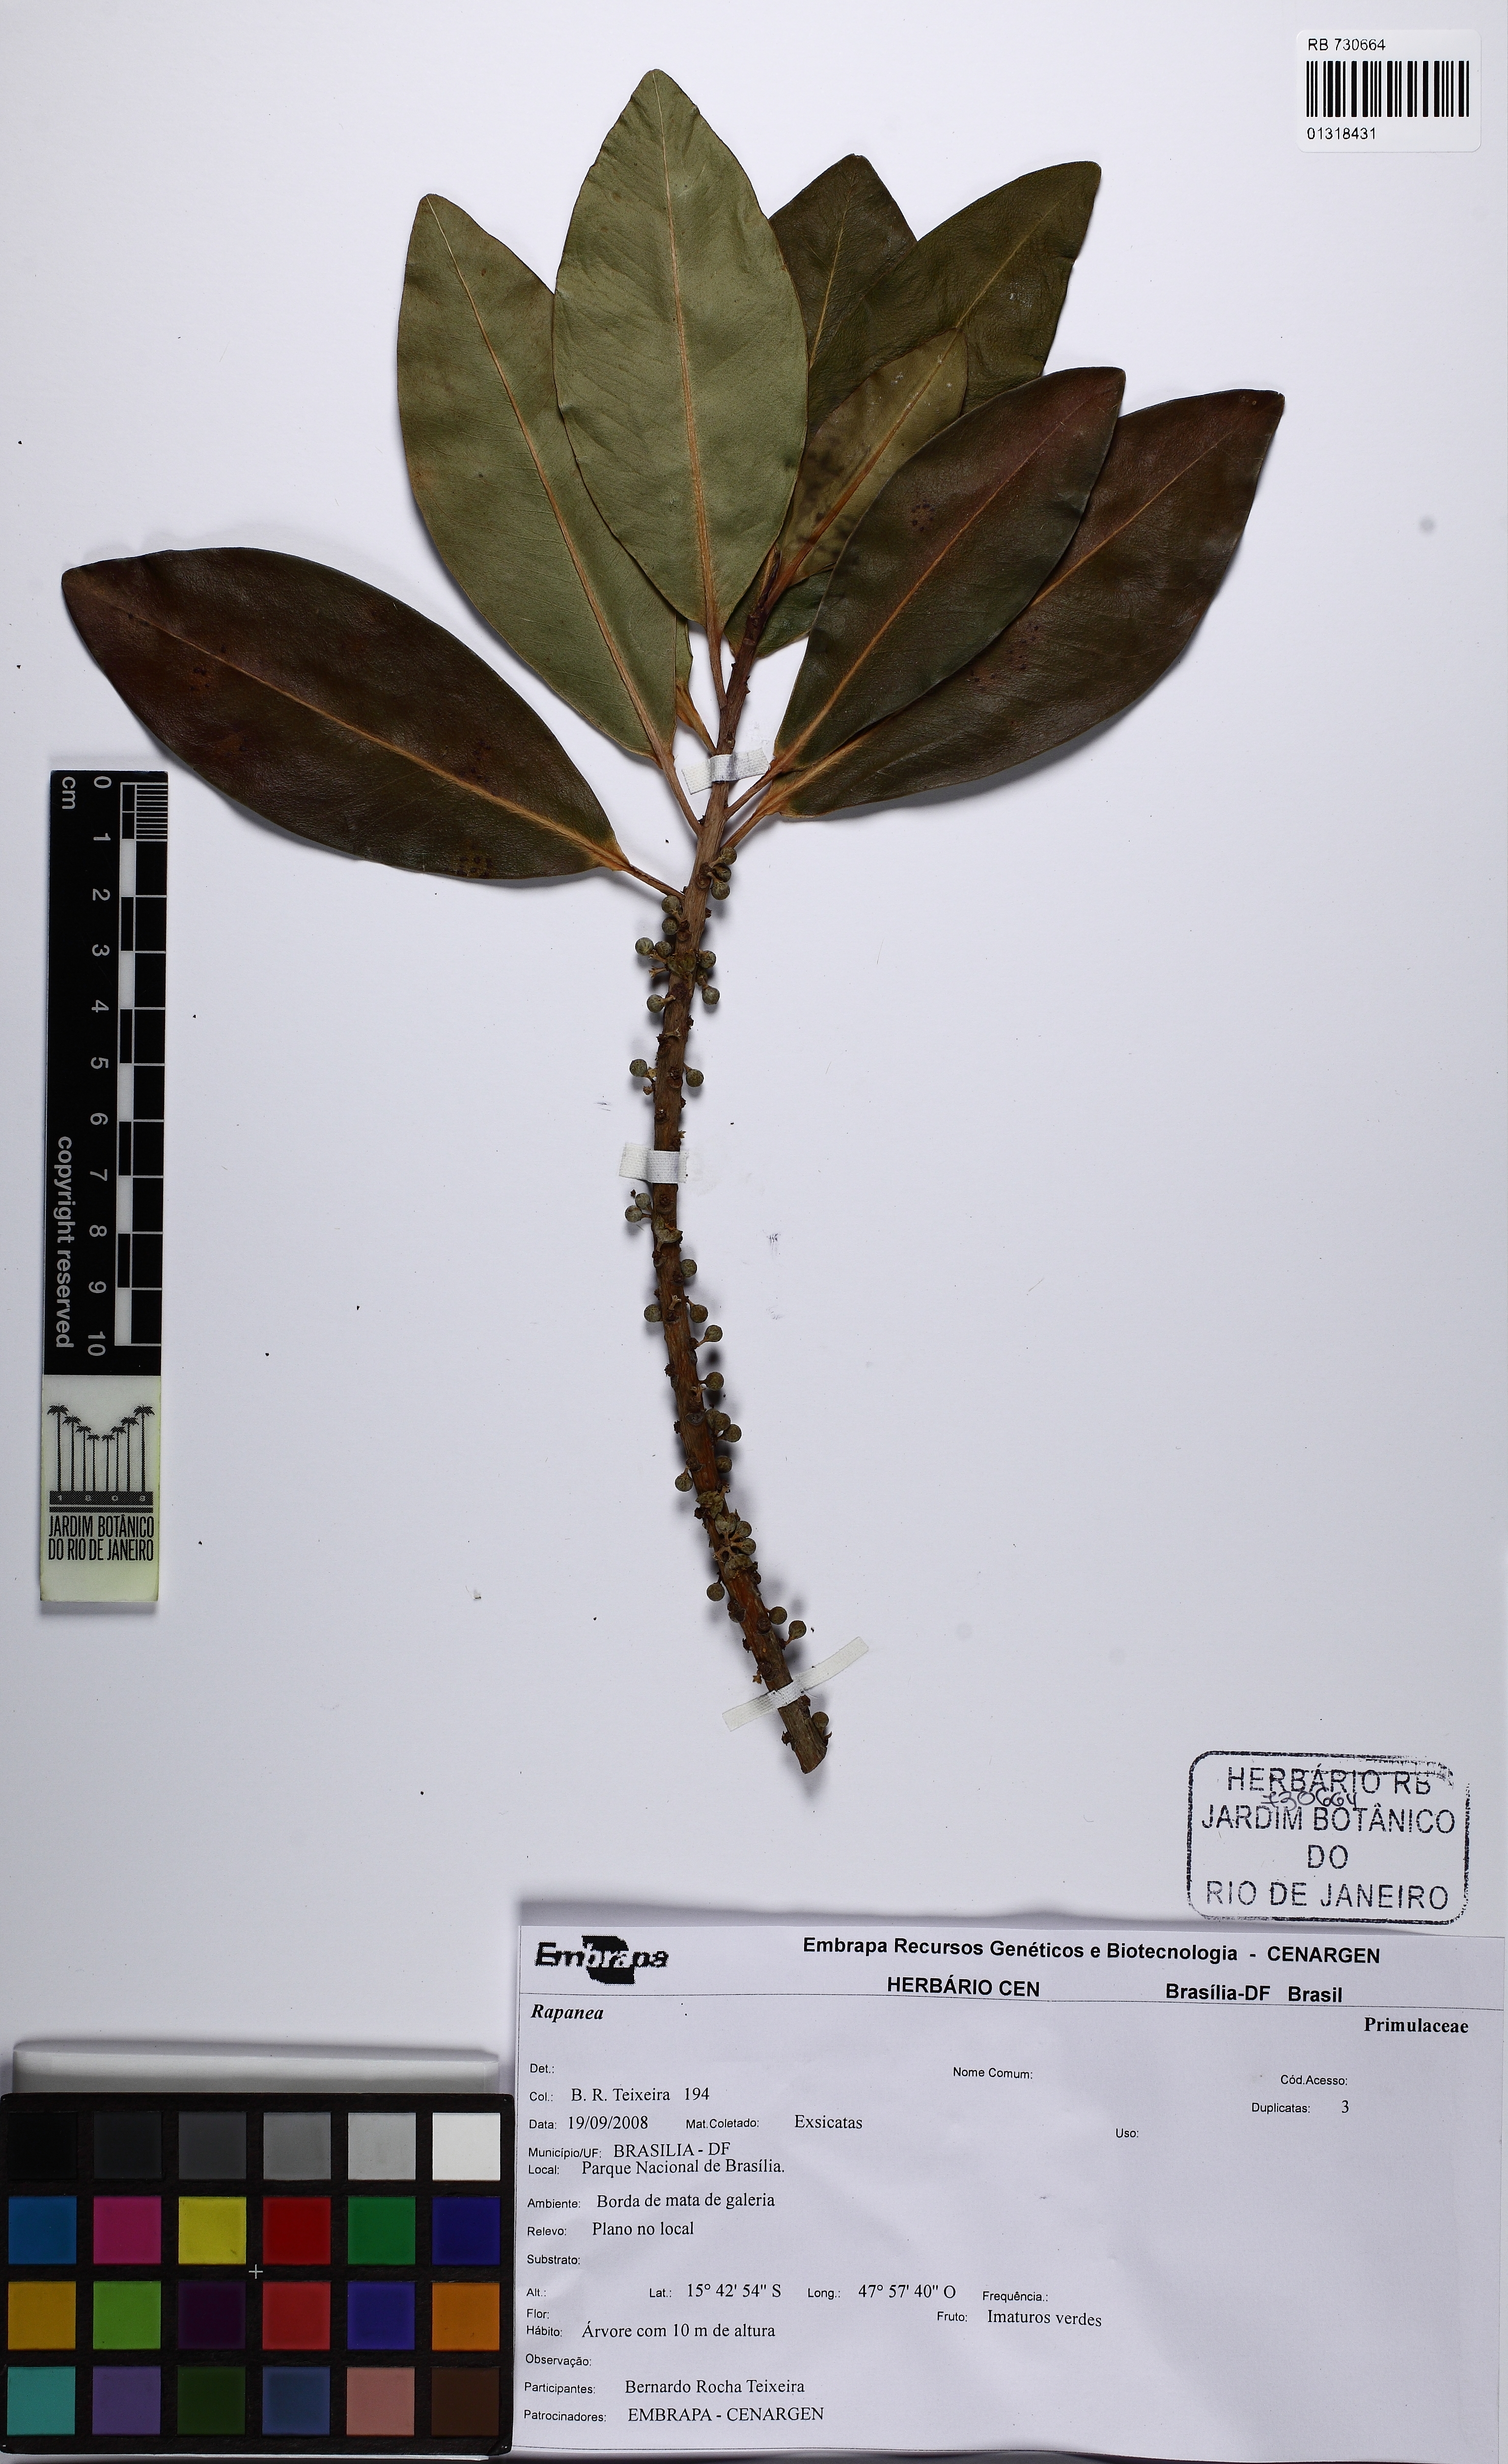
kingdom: Plantae
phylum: Tracheophyta
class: Magnoliopsida
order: Ericales
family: Primulaceae
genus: Myrsine
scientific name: Myrsine leuconeura
